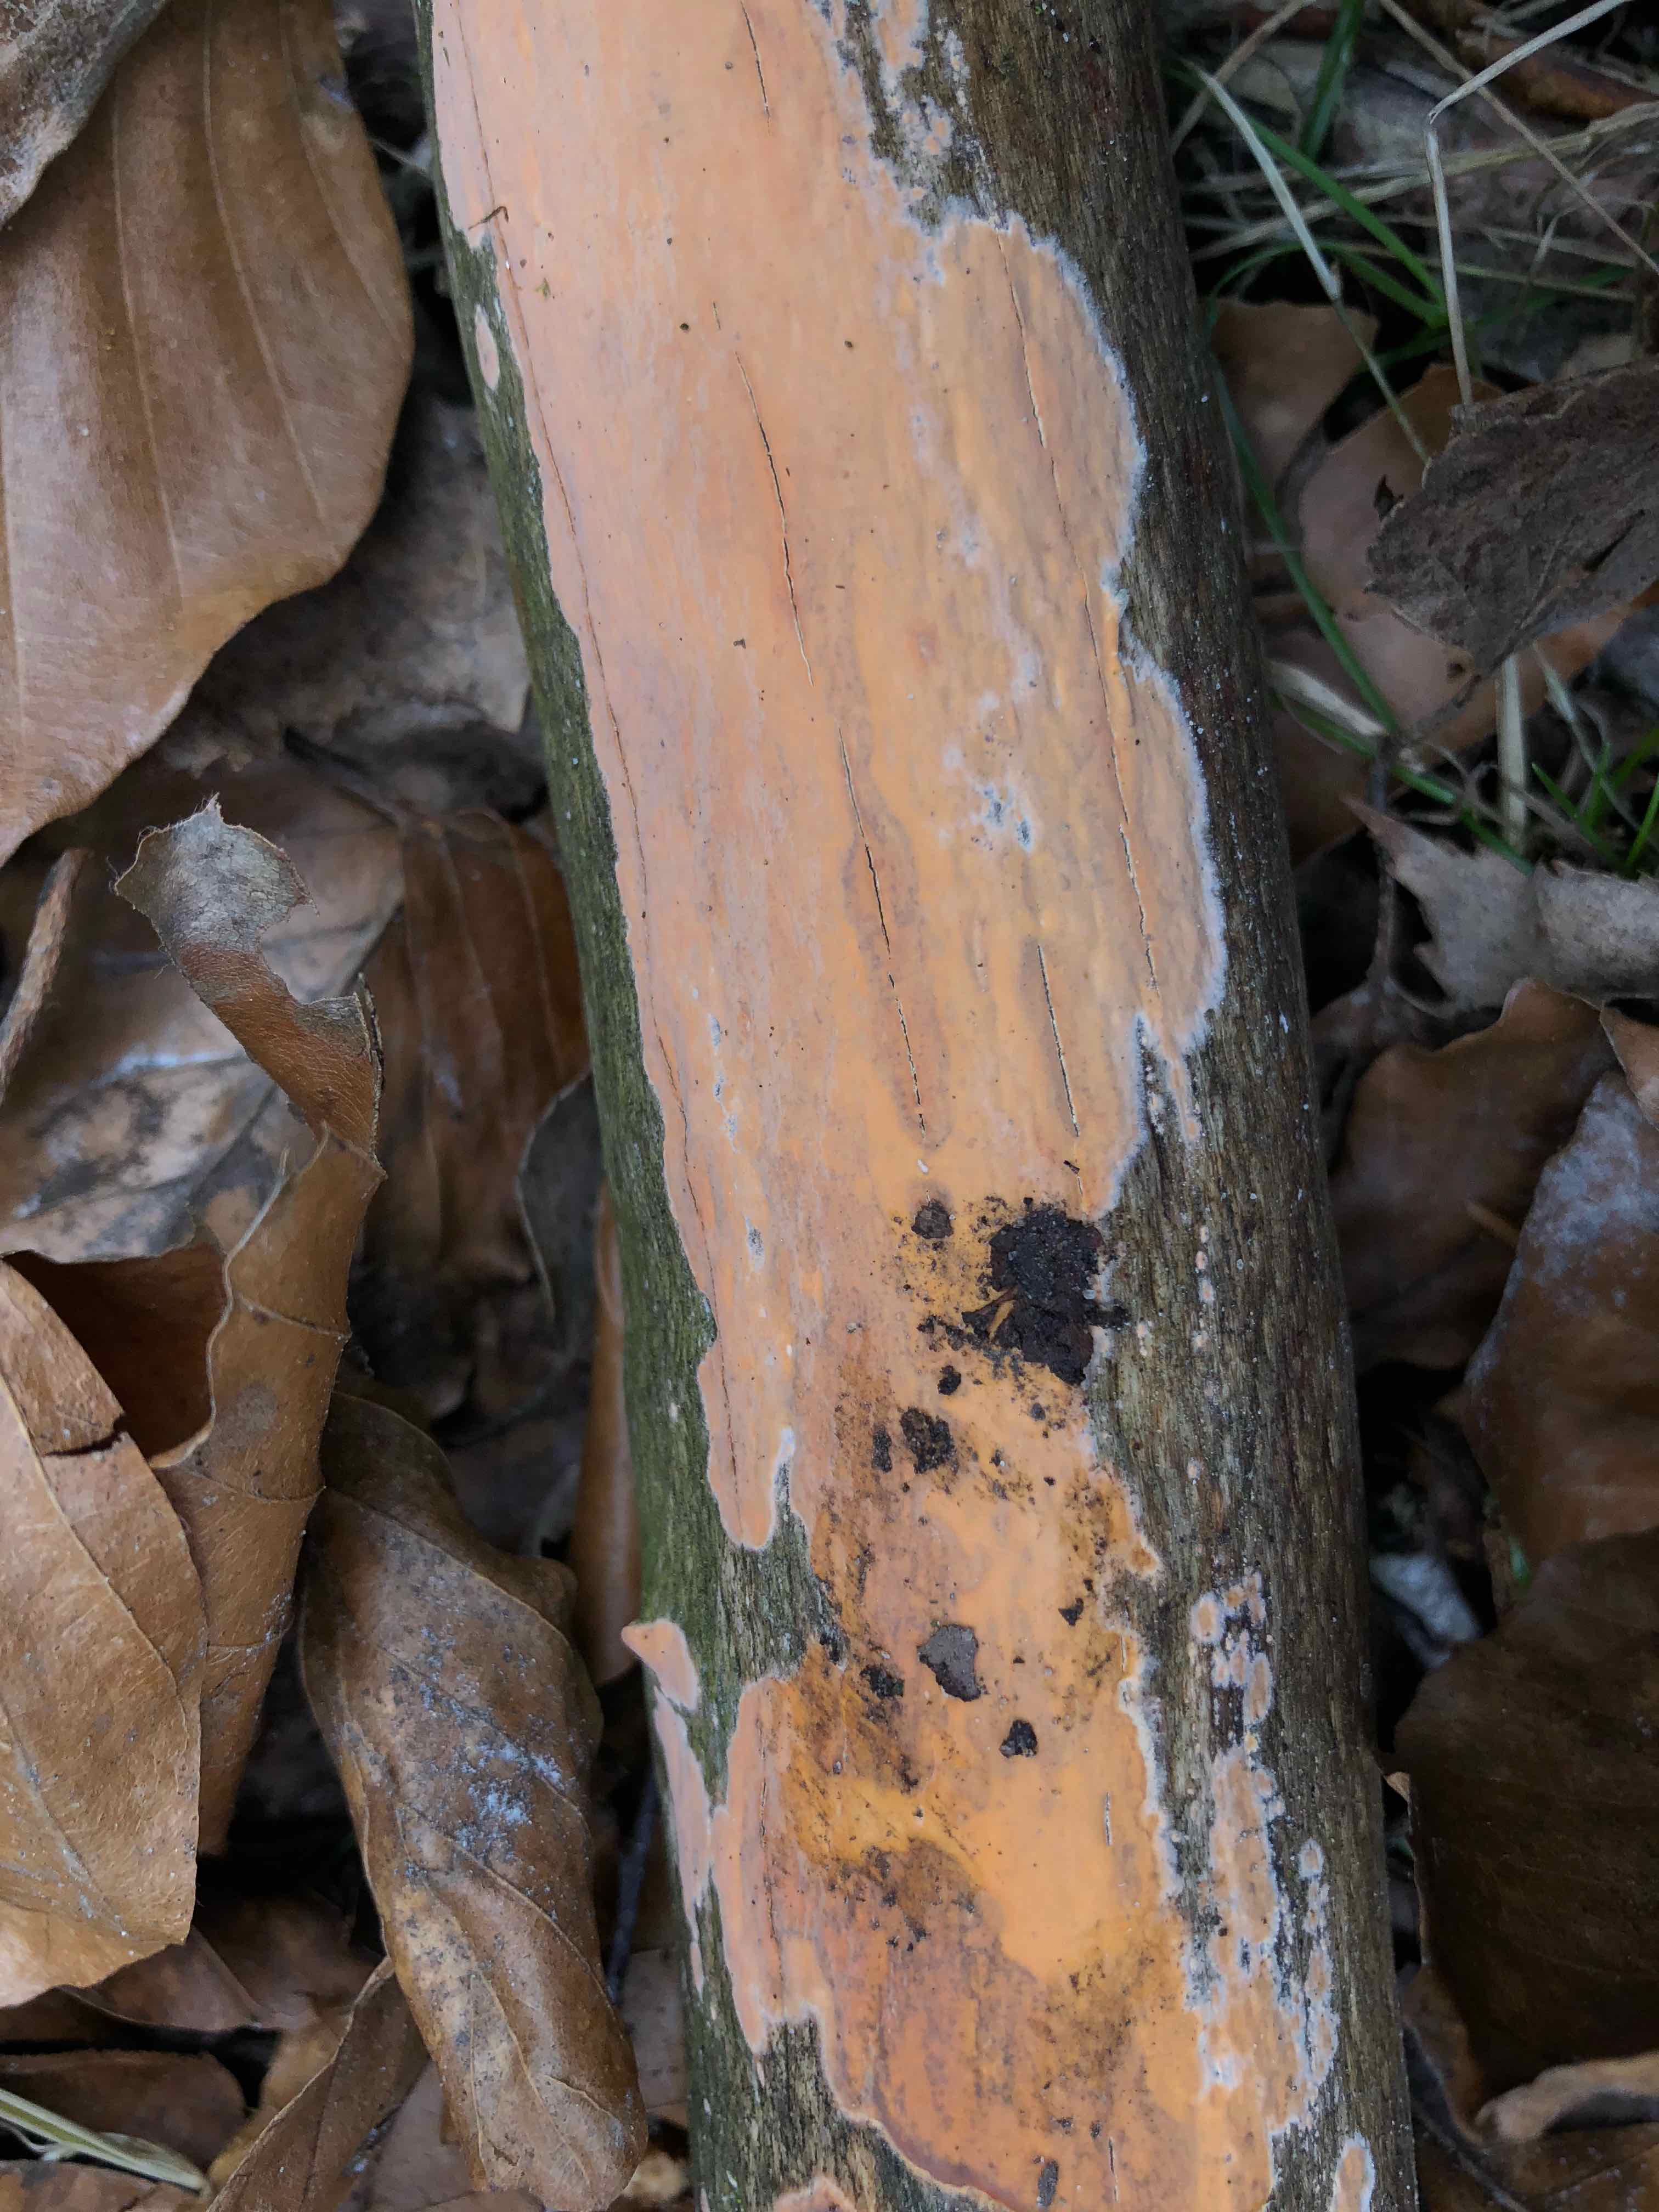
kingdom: Fungi
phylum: Basidiomycota
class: Agaricomycetes
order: Russulales
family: Peniophoraceae
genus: Peniophora
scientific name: Peniophora incarnata
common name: laksefarvet voksskind
